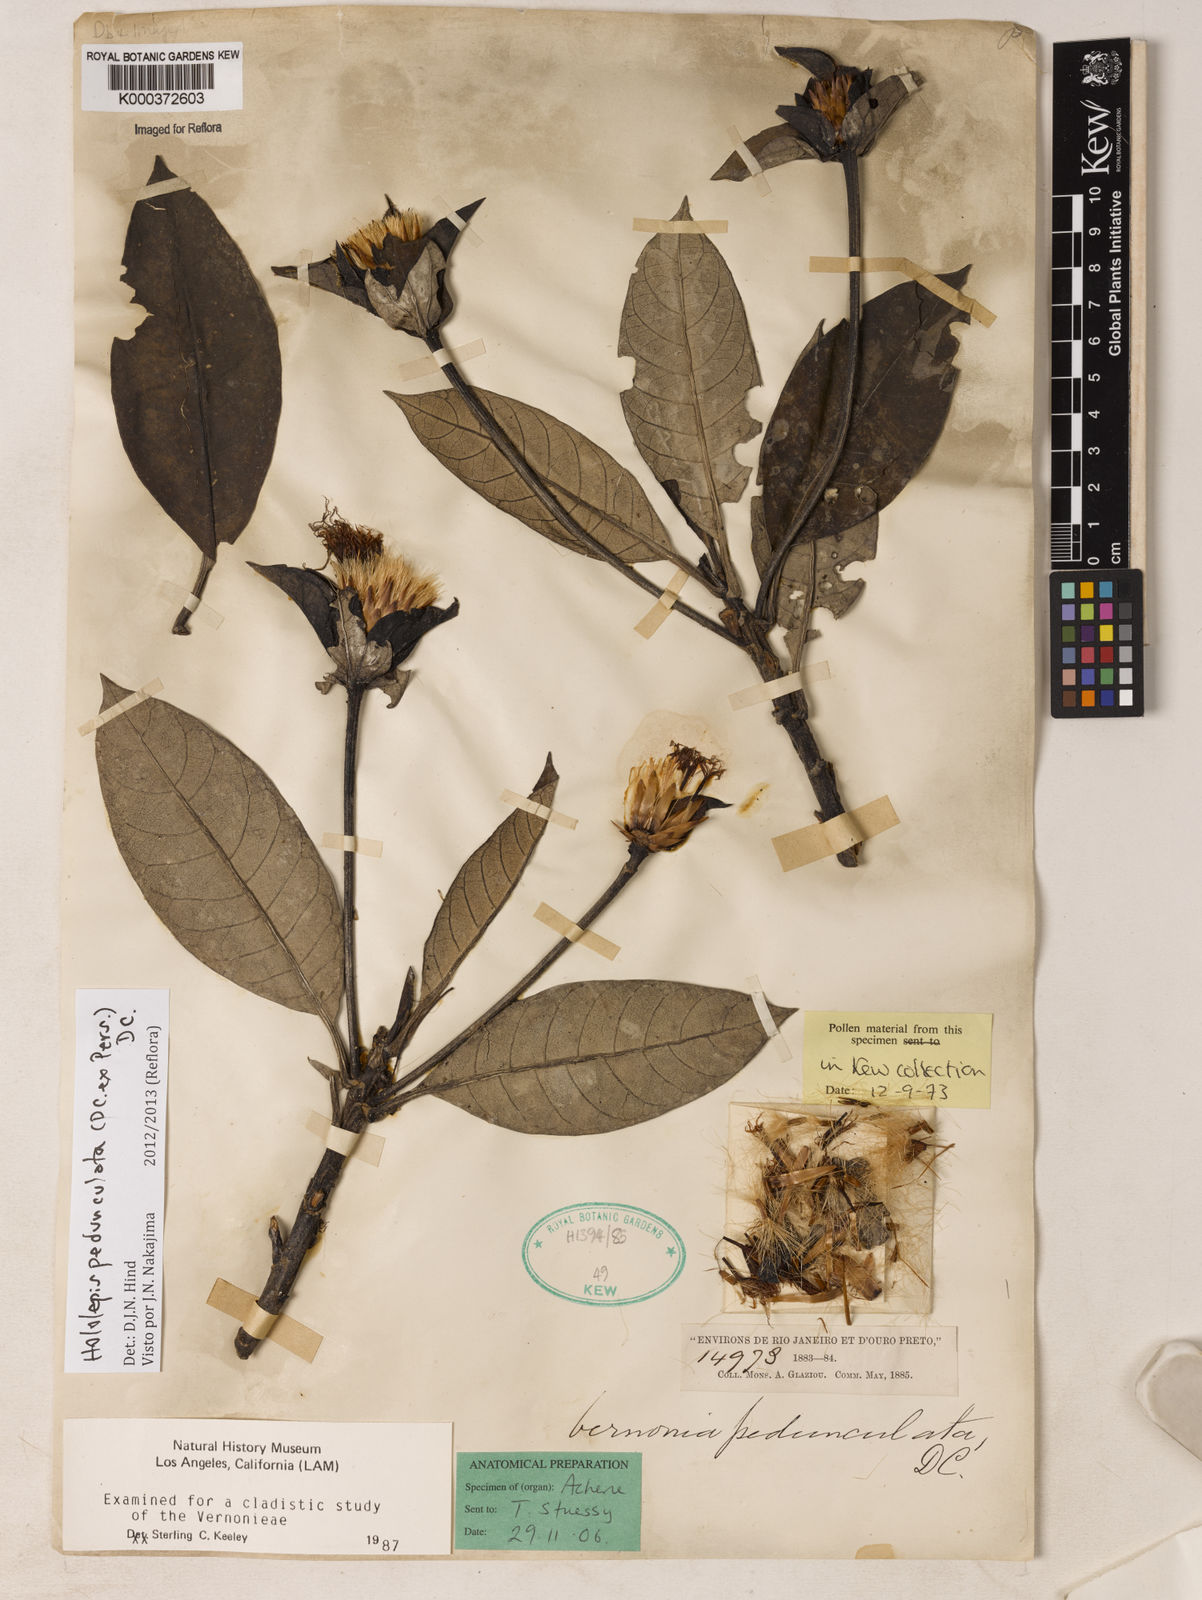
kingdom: Plantae
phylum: Tracheophyta
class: Magnoliopsida
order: Asterales
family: Asteraceae
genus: Hololepis
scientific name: Hololepis pedunculata
